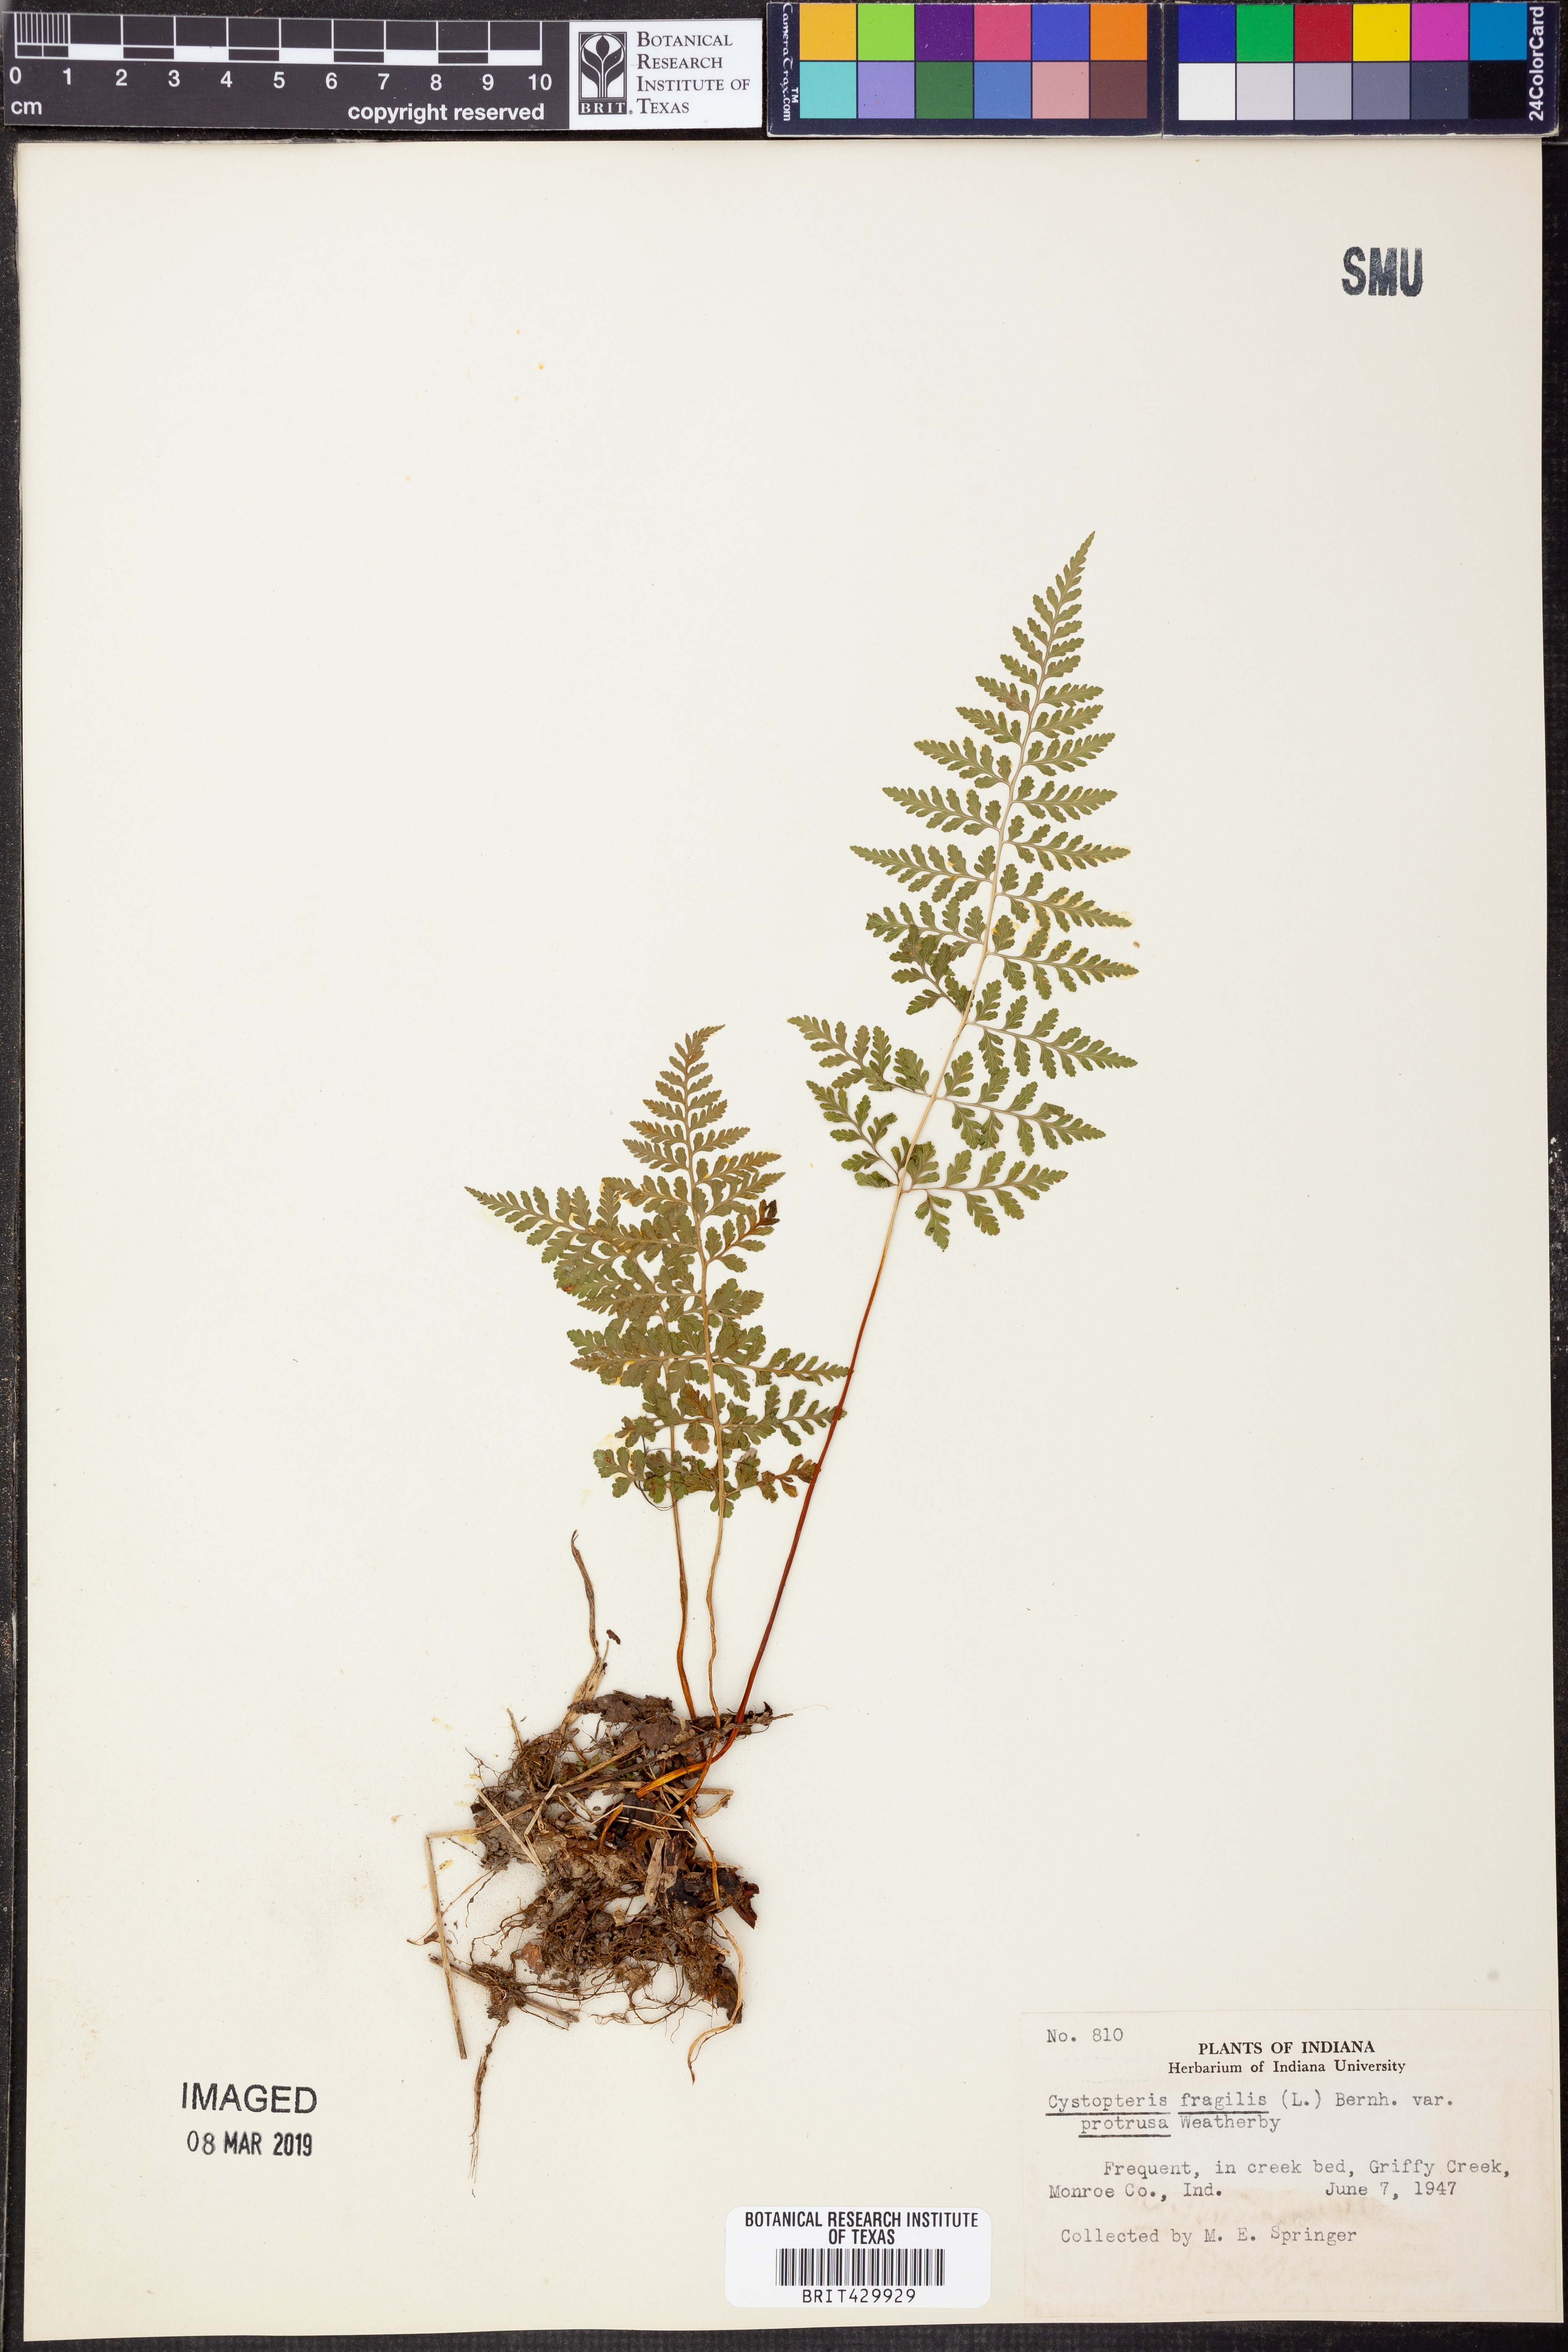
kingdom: Plantae
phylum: Tracheophyta
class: Polypodiopsida
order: Polypodiales
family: Cystopteridaceae
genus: Cystopteris
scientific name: Cystopteris protrusa
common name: Lowland brittle fern
